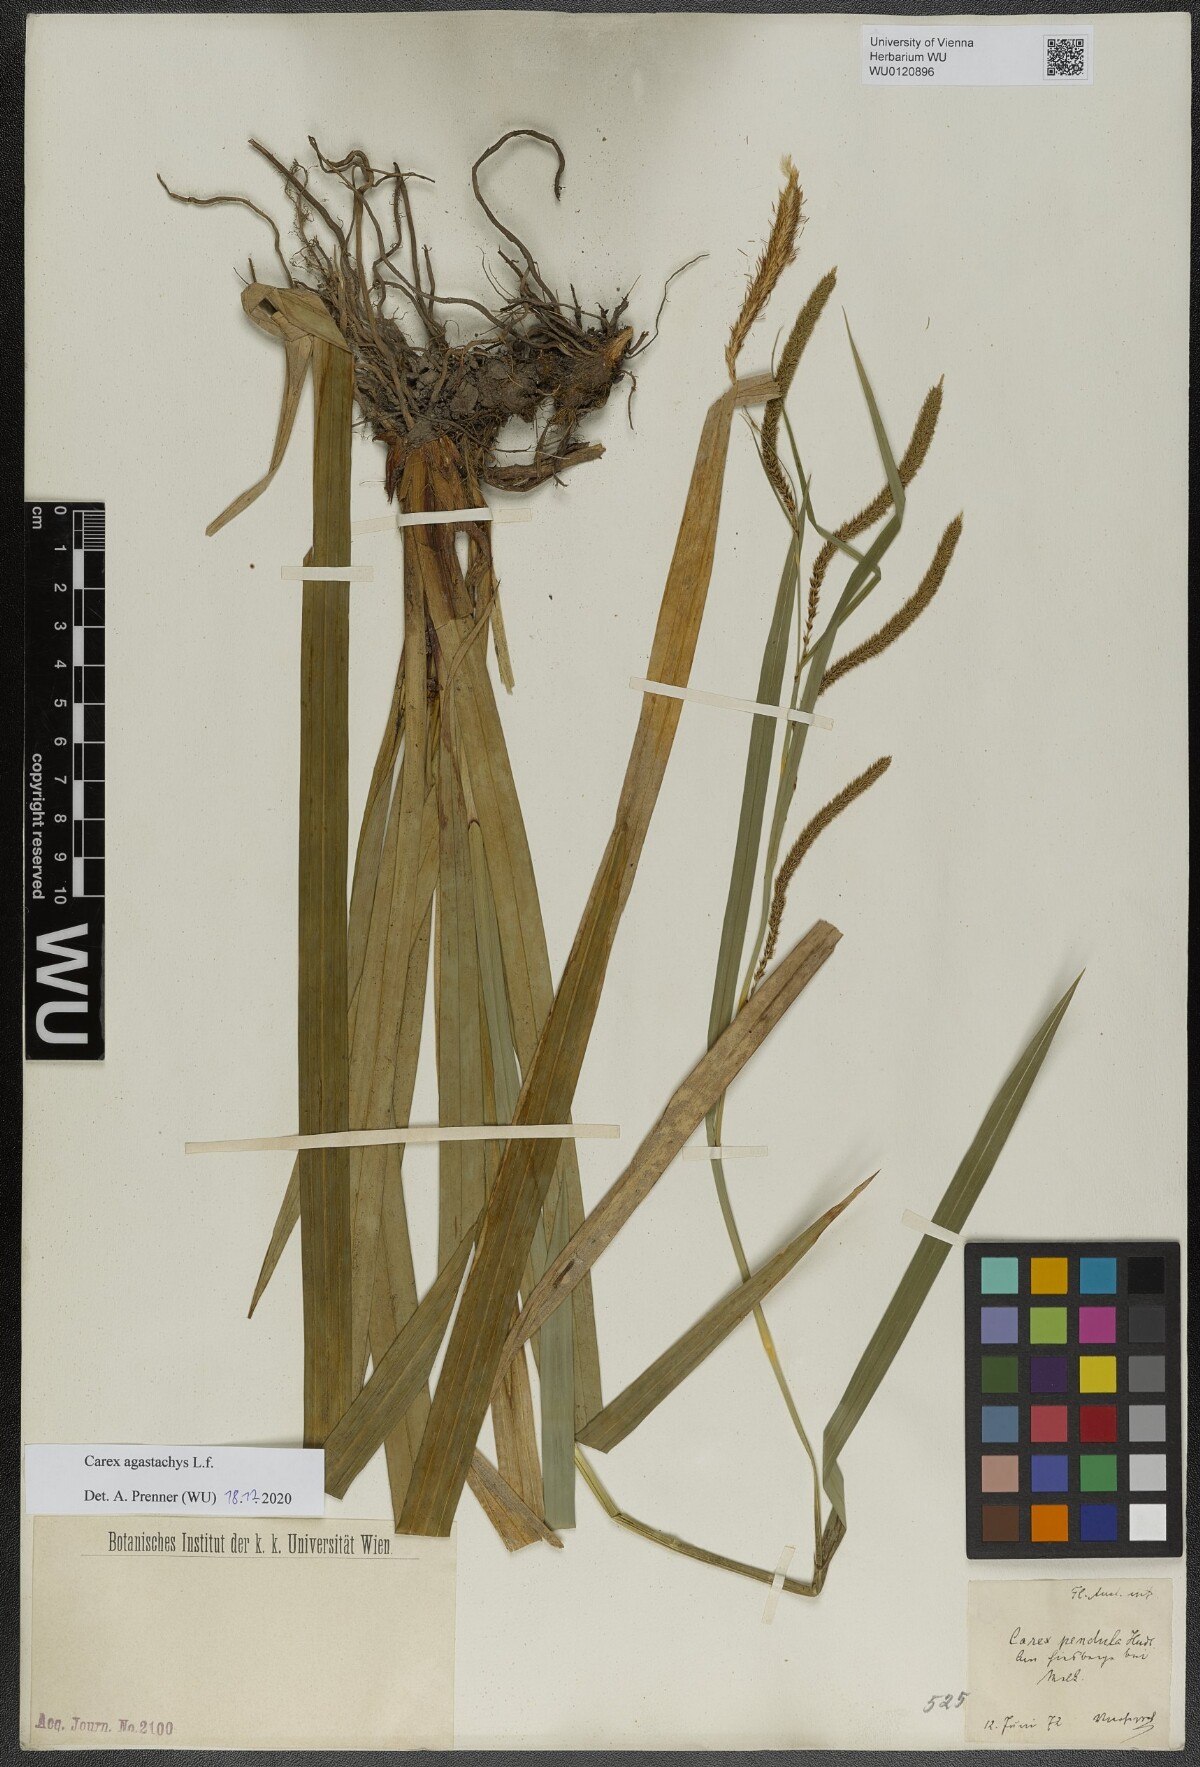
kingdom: Plantae
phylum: Tracheophyta
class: Liliopsida
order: Poales
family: Cyperaceae
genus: Carex
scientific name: Carex agastachys
